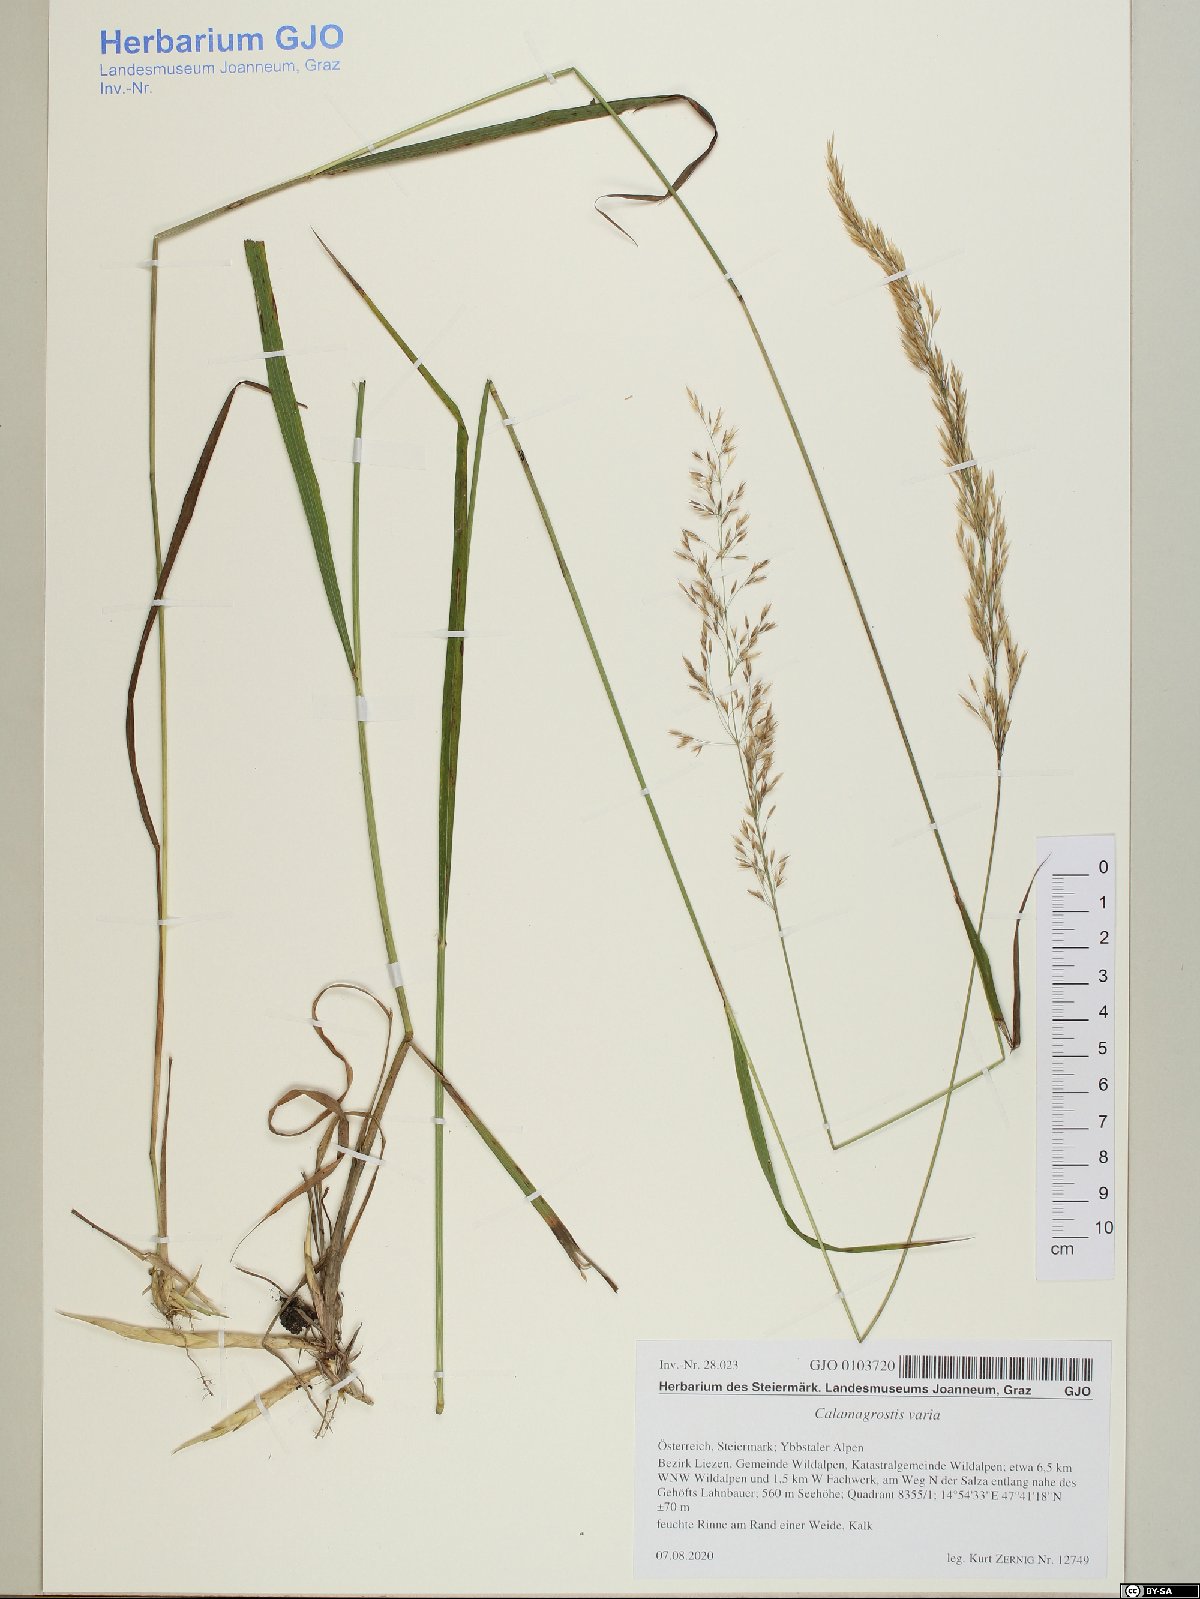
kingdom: Plantae
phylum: Tracheophyta
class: Liliopsida
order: Poales
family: Poaceae
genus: Calamagrostis
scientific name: Calamagrostis varia
